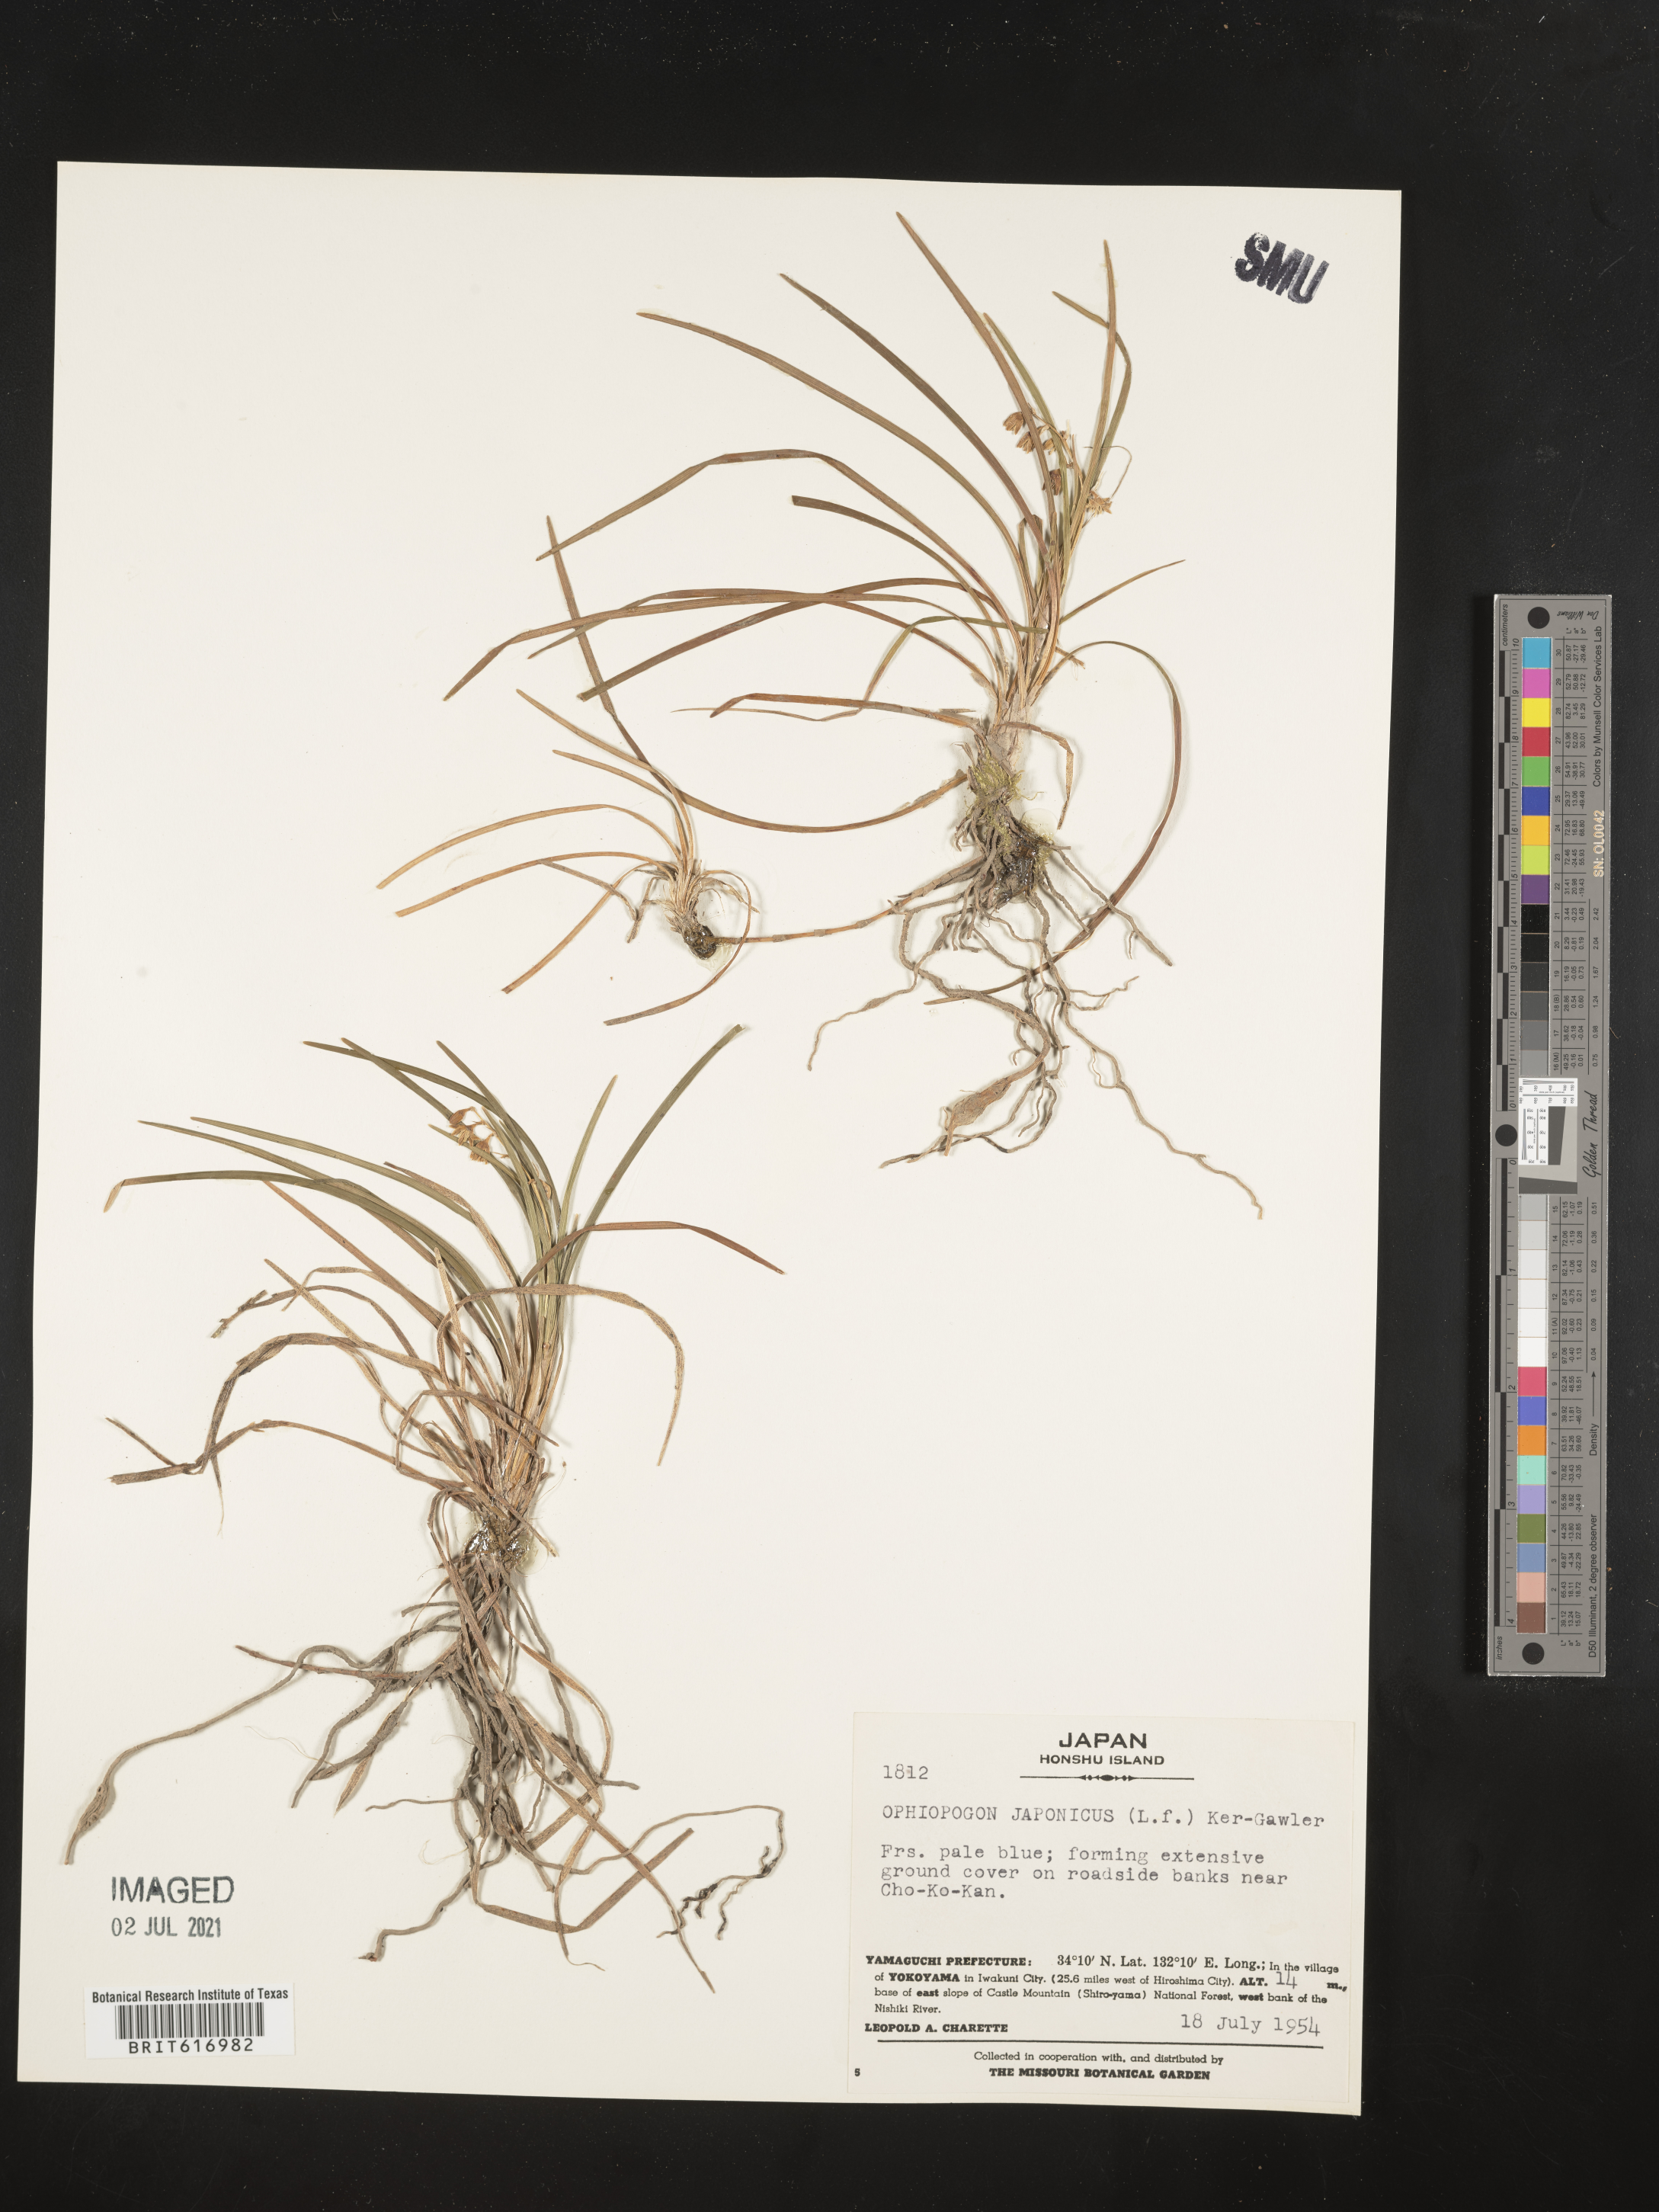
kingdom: Plantae
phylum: Tracheophyta
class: Liliopsida
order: Asparagales
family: Asparagaceae
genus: Ophiopogon
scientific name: Ophiopogon japonicus
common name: Dwarf lilyturf
